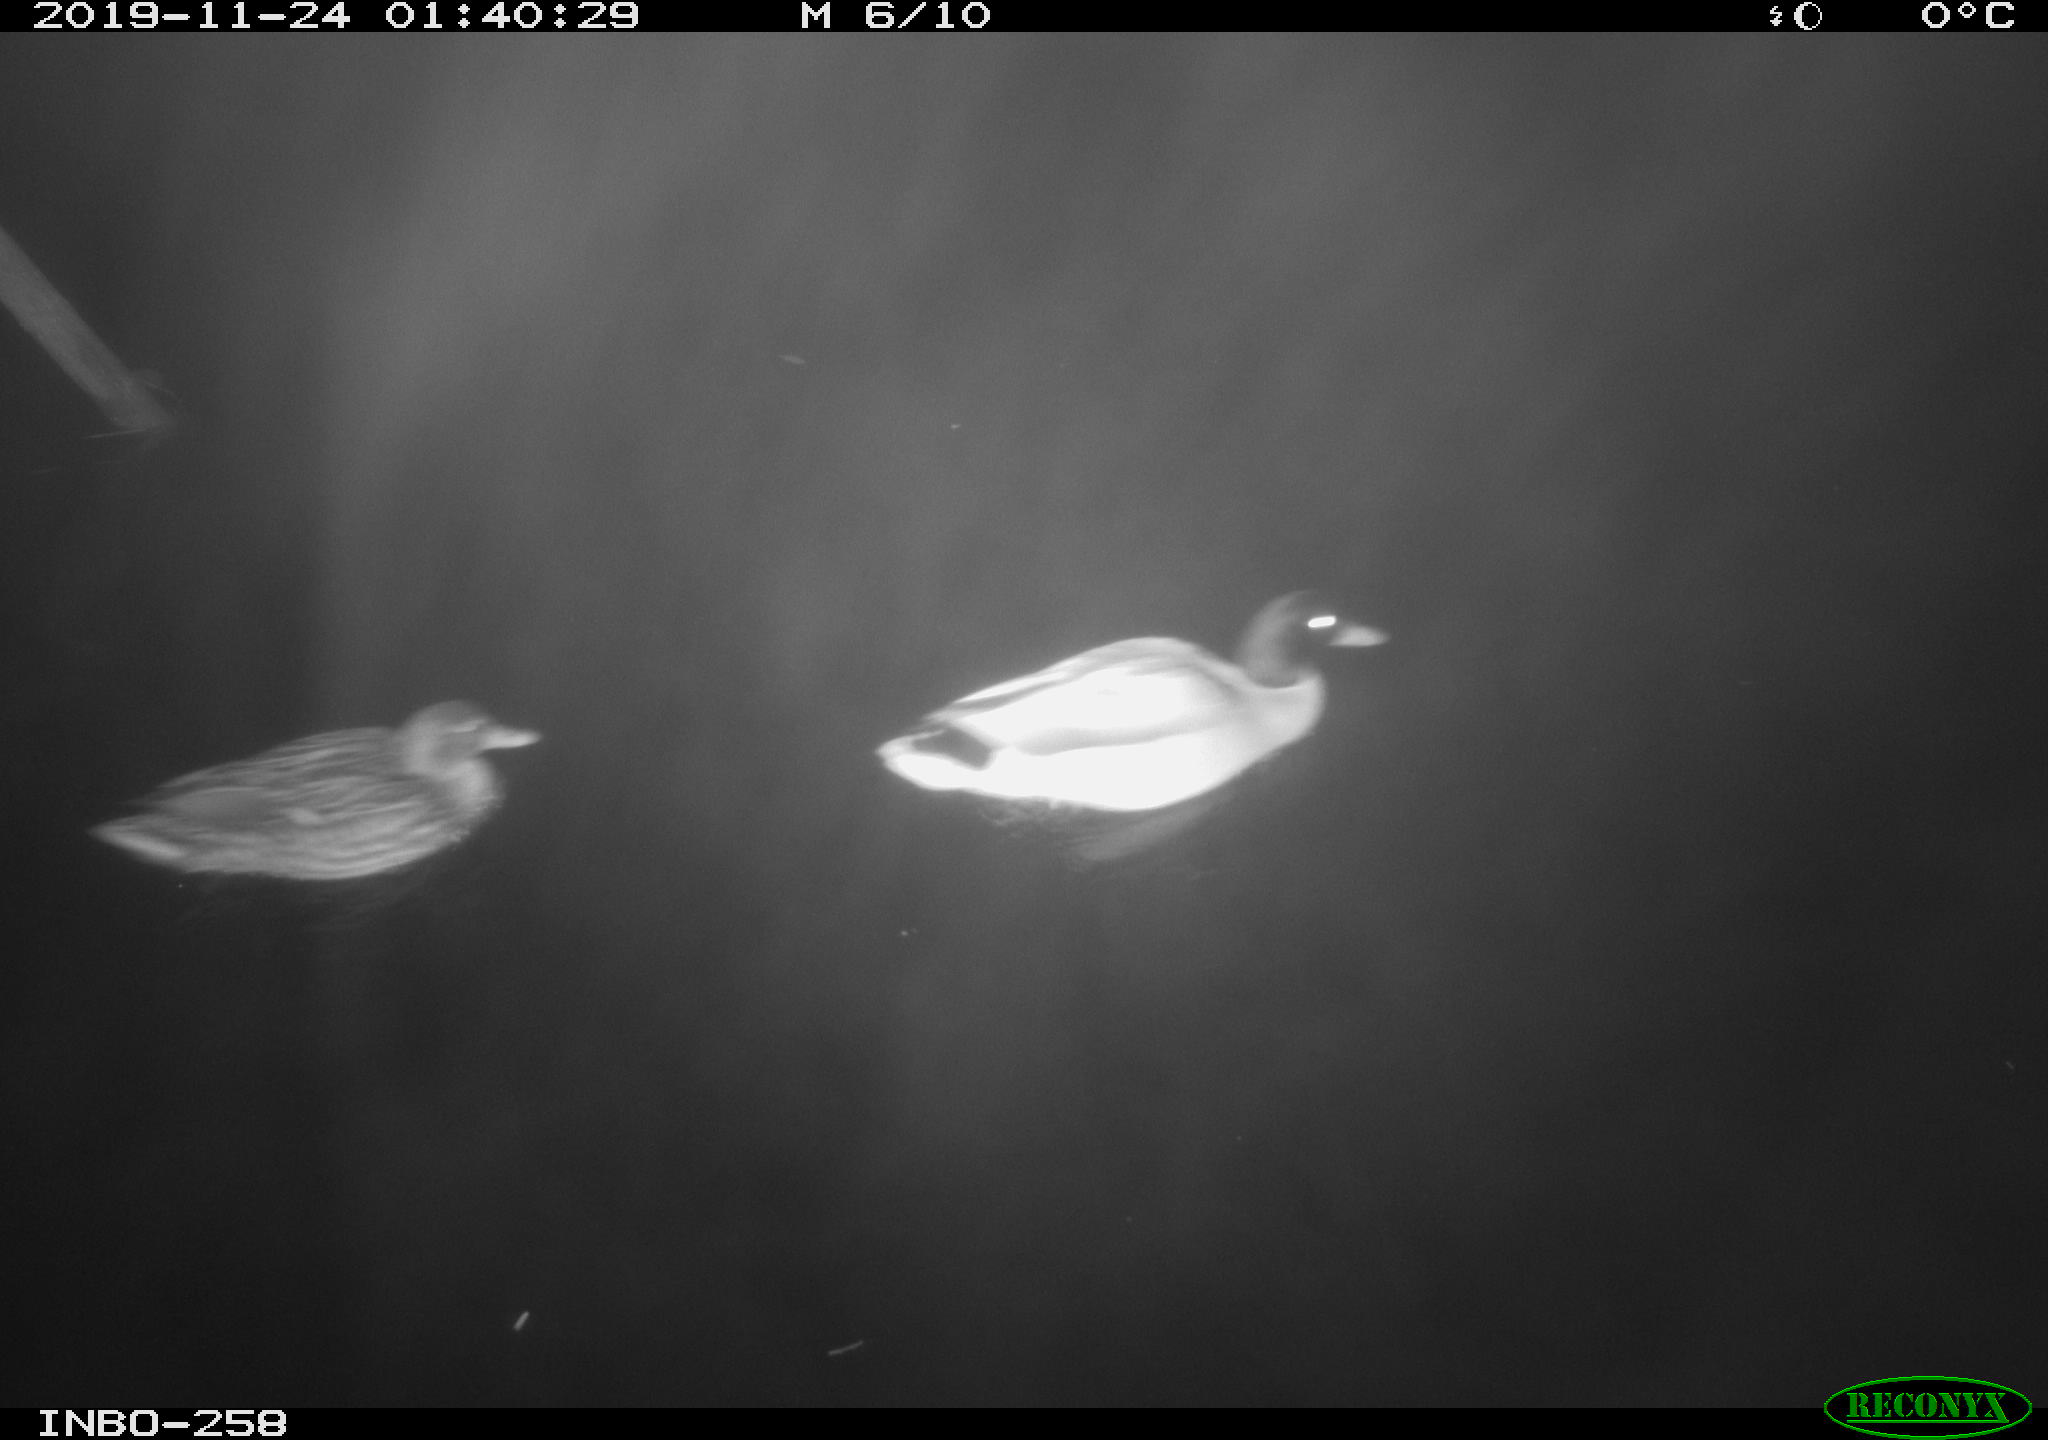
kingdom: Animalia
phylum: Chordata
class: Aves
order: Anseriformes
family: Anatidae
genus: Anas
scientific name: Anas platyrhynchos
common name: Mallard
